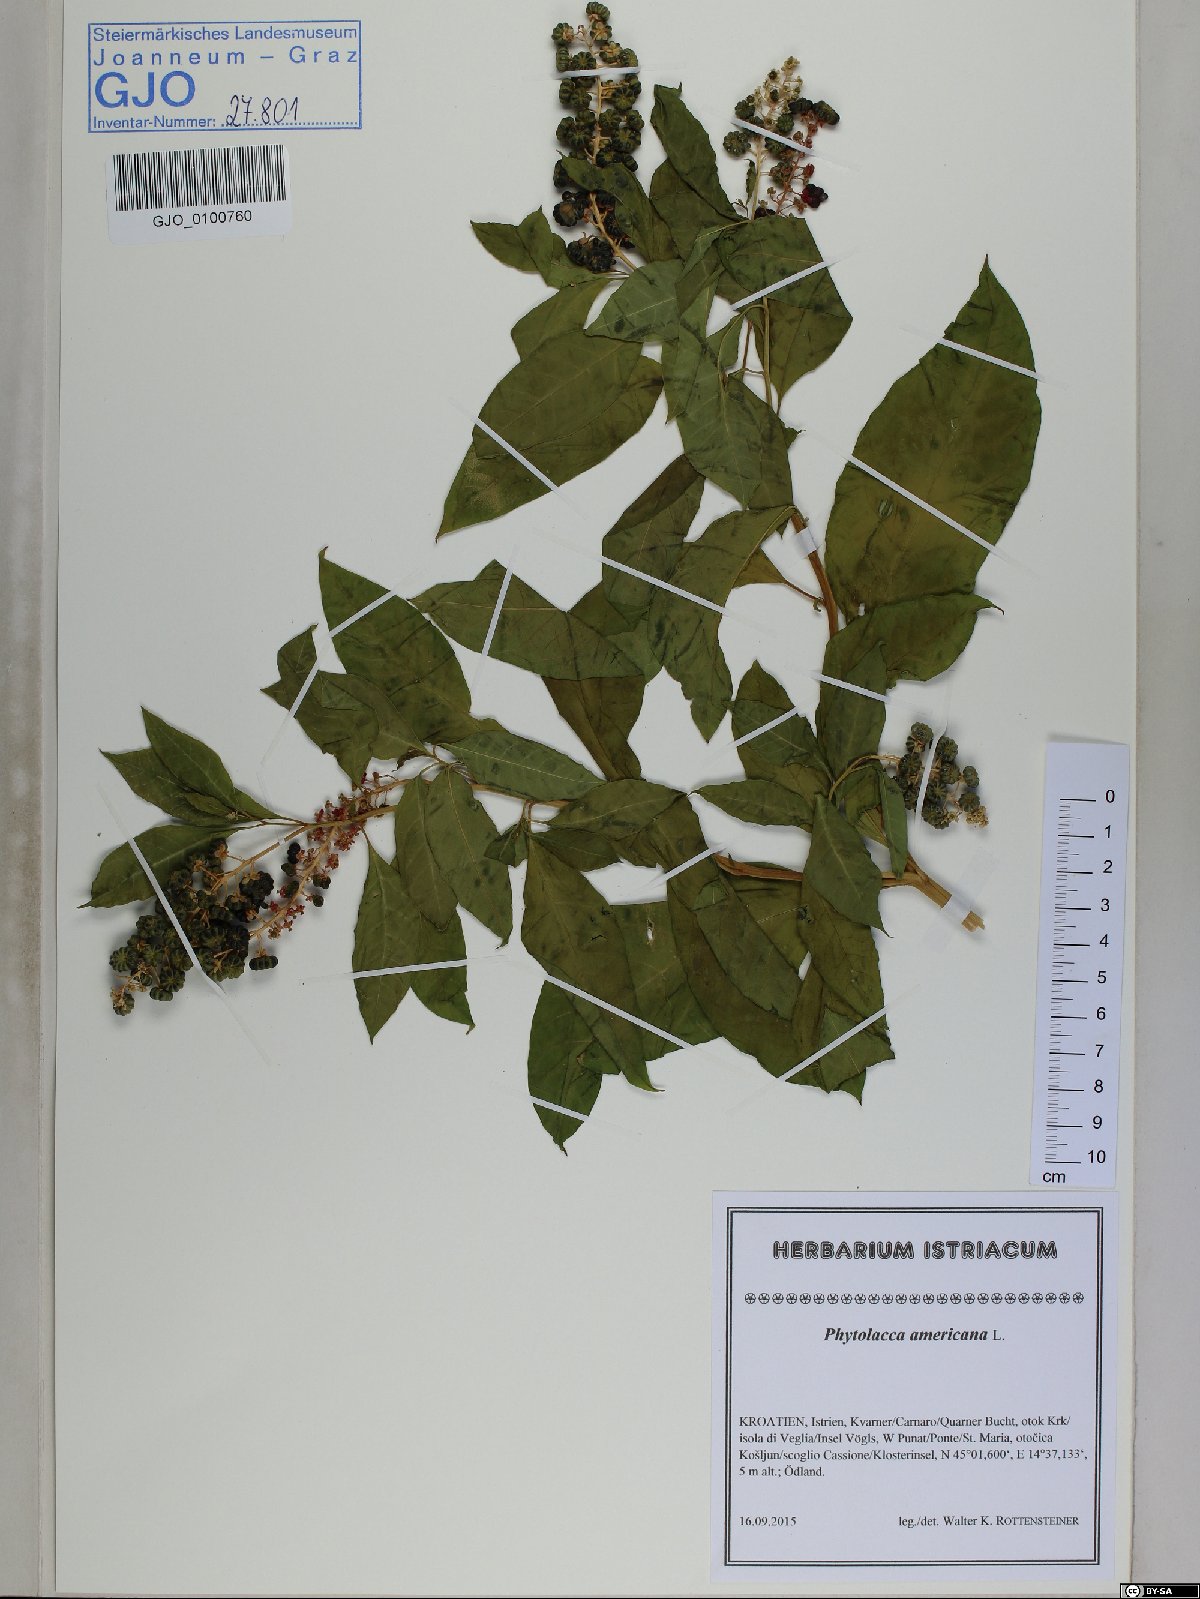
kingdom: Plantae
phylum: Tracheophyta
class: Magnoliopsida
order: Caryophyllales
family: Phytolaccaceae
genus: Phytolacca
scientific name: Phytolacca americana
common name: American pokeweed
